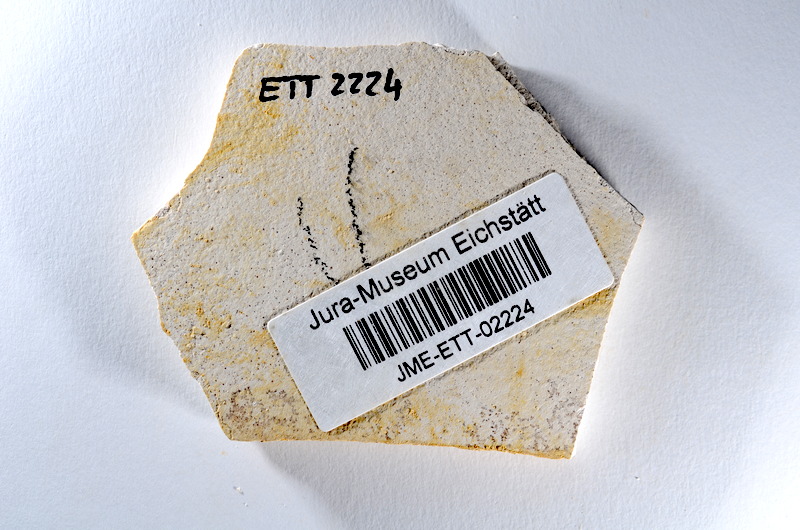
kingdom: Animalia
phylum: Chordata
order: Salmoniformes
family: Orthogonikleithridae
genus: Orthogonikleithrus
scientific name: Orthogonikleithrus hoelli
